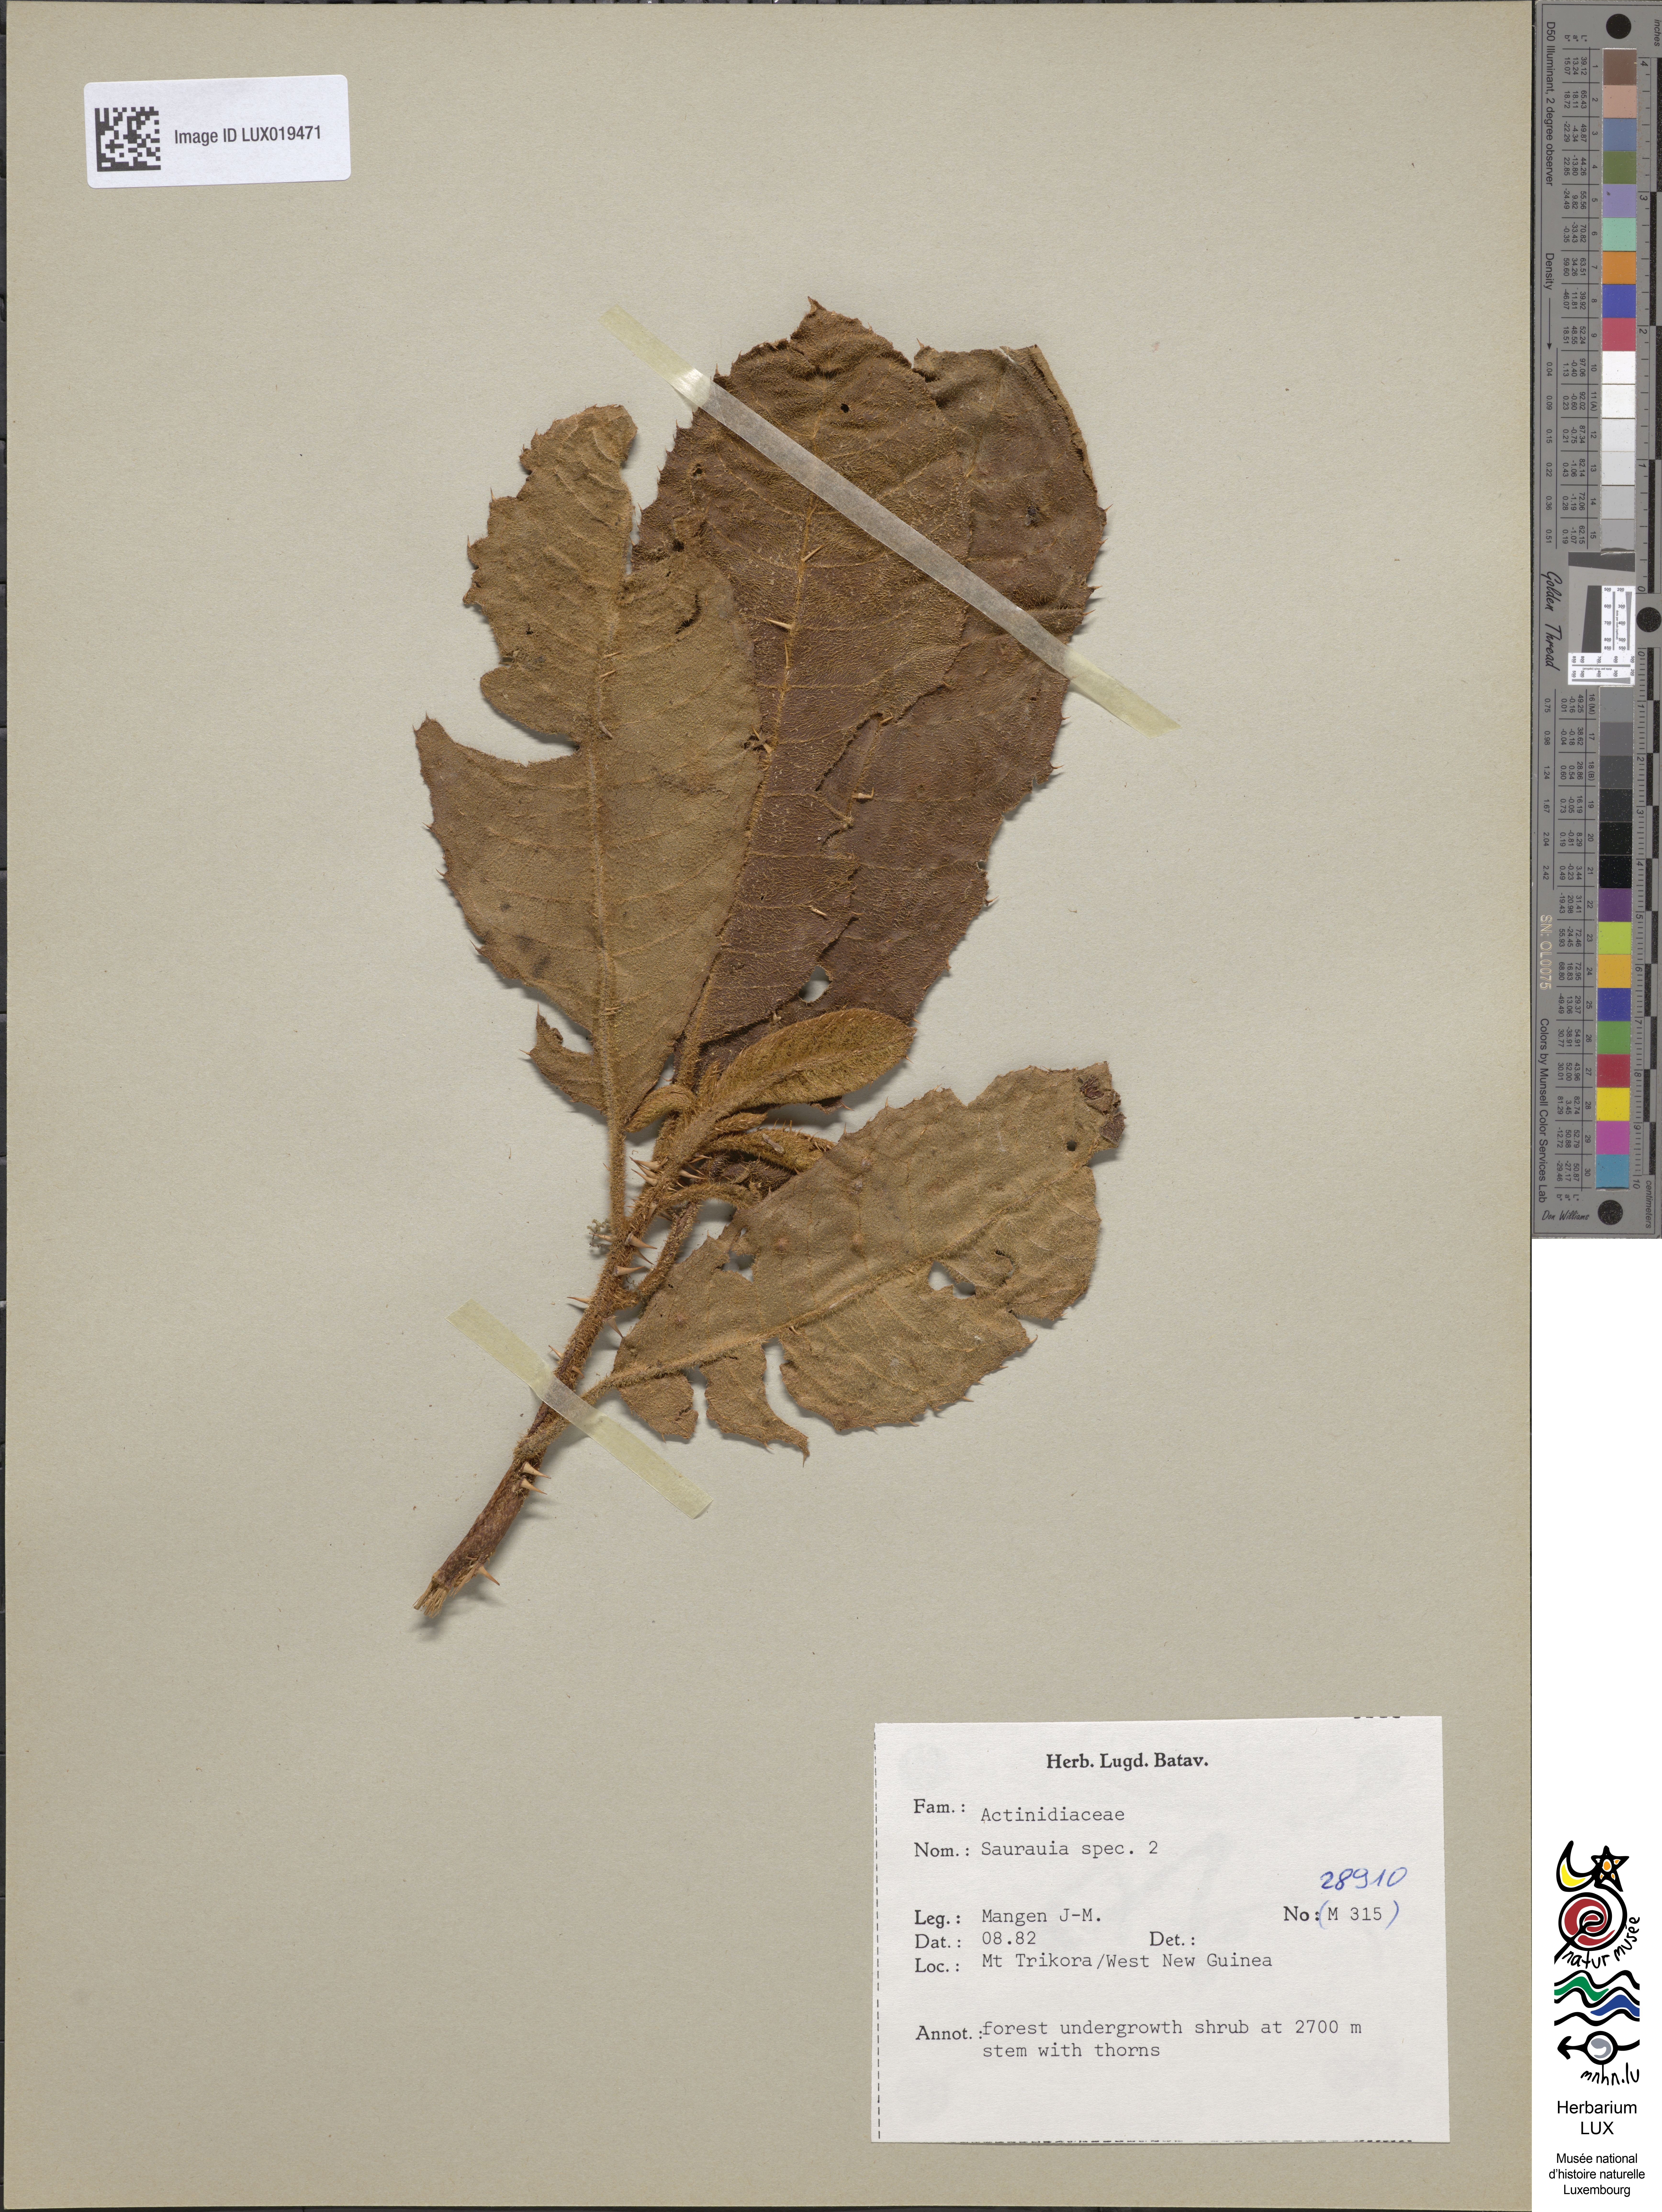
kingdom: Plantae
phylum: Tracheophyta
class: Magnoliopsida
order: Ericales
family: Actinidiaceae
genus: Saurauia
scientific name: Saurauia
